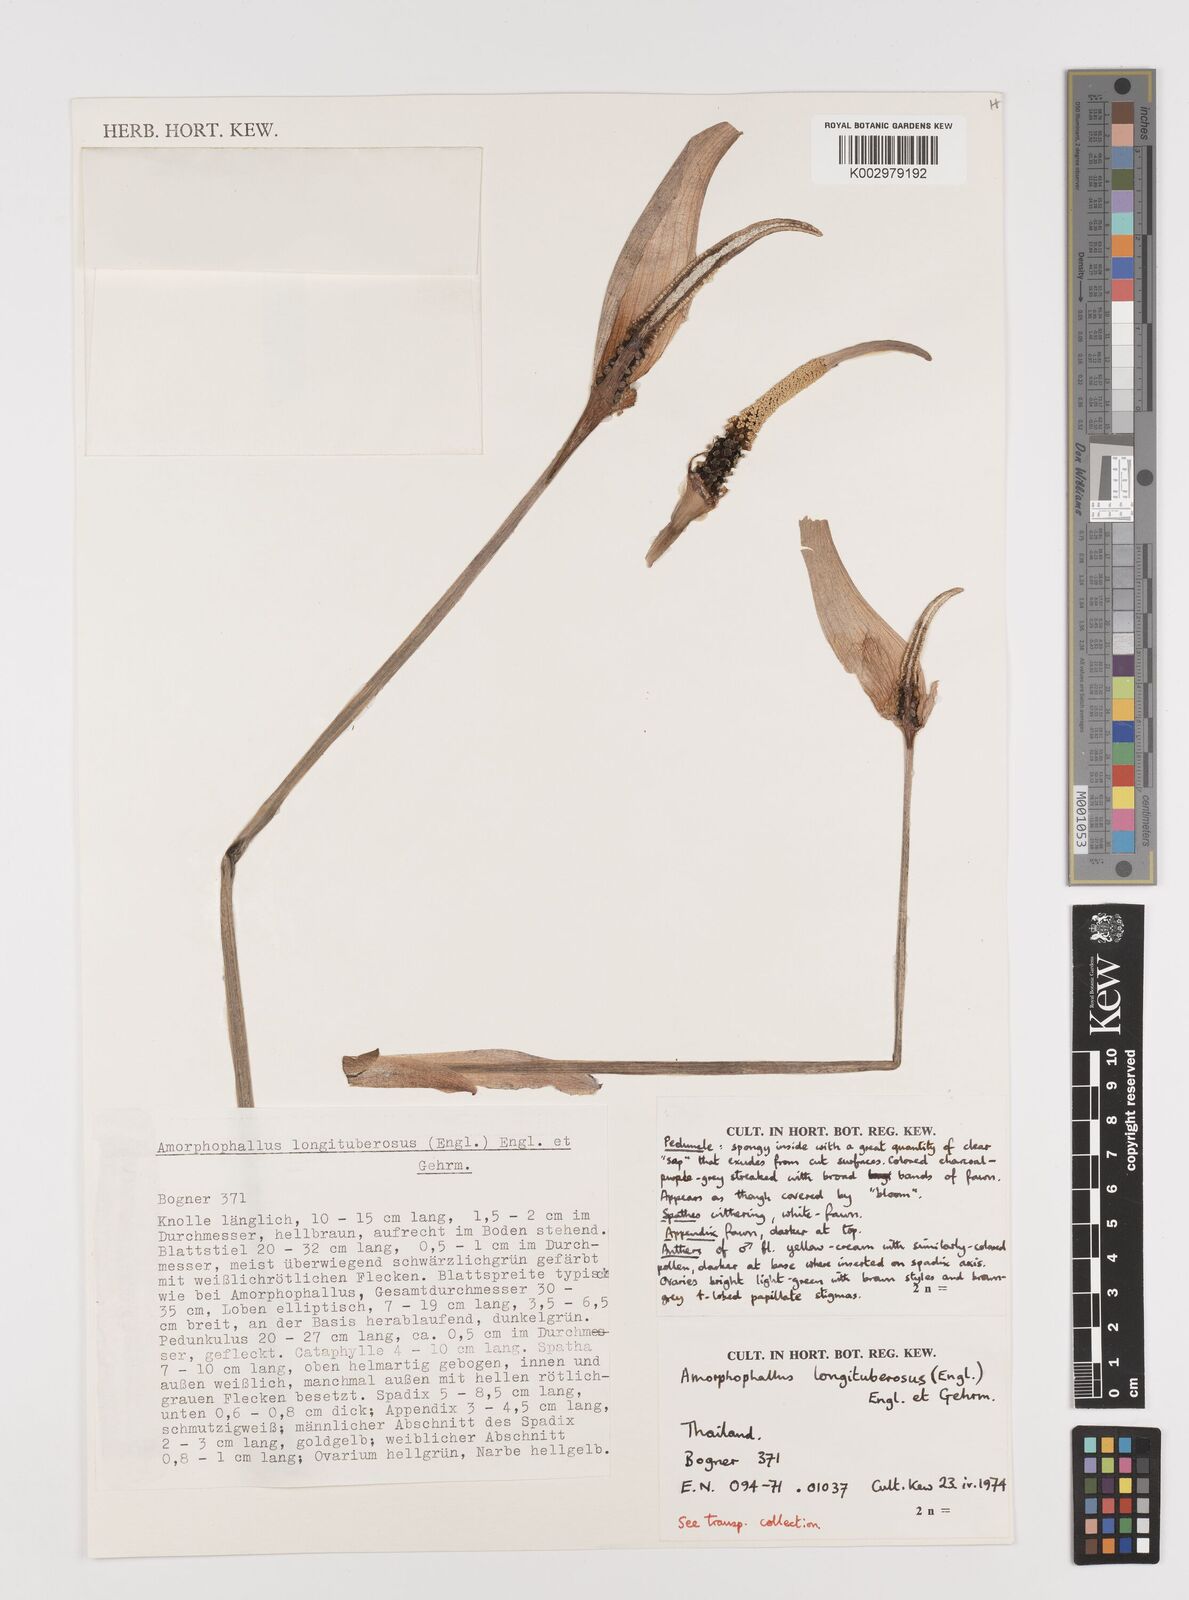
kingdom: Plantae
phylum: Tracheophyta
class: Liliopsida
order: Alismatales
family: Araceae
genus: Amorphophallus
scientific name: Amorphophallus longituberosus
